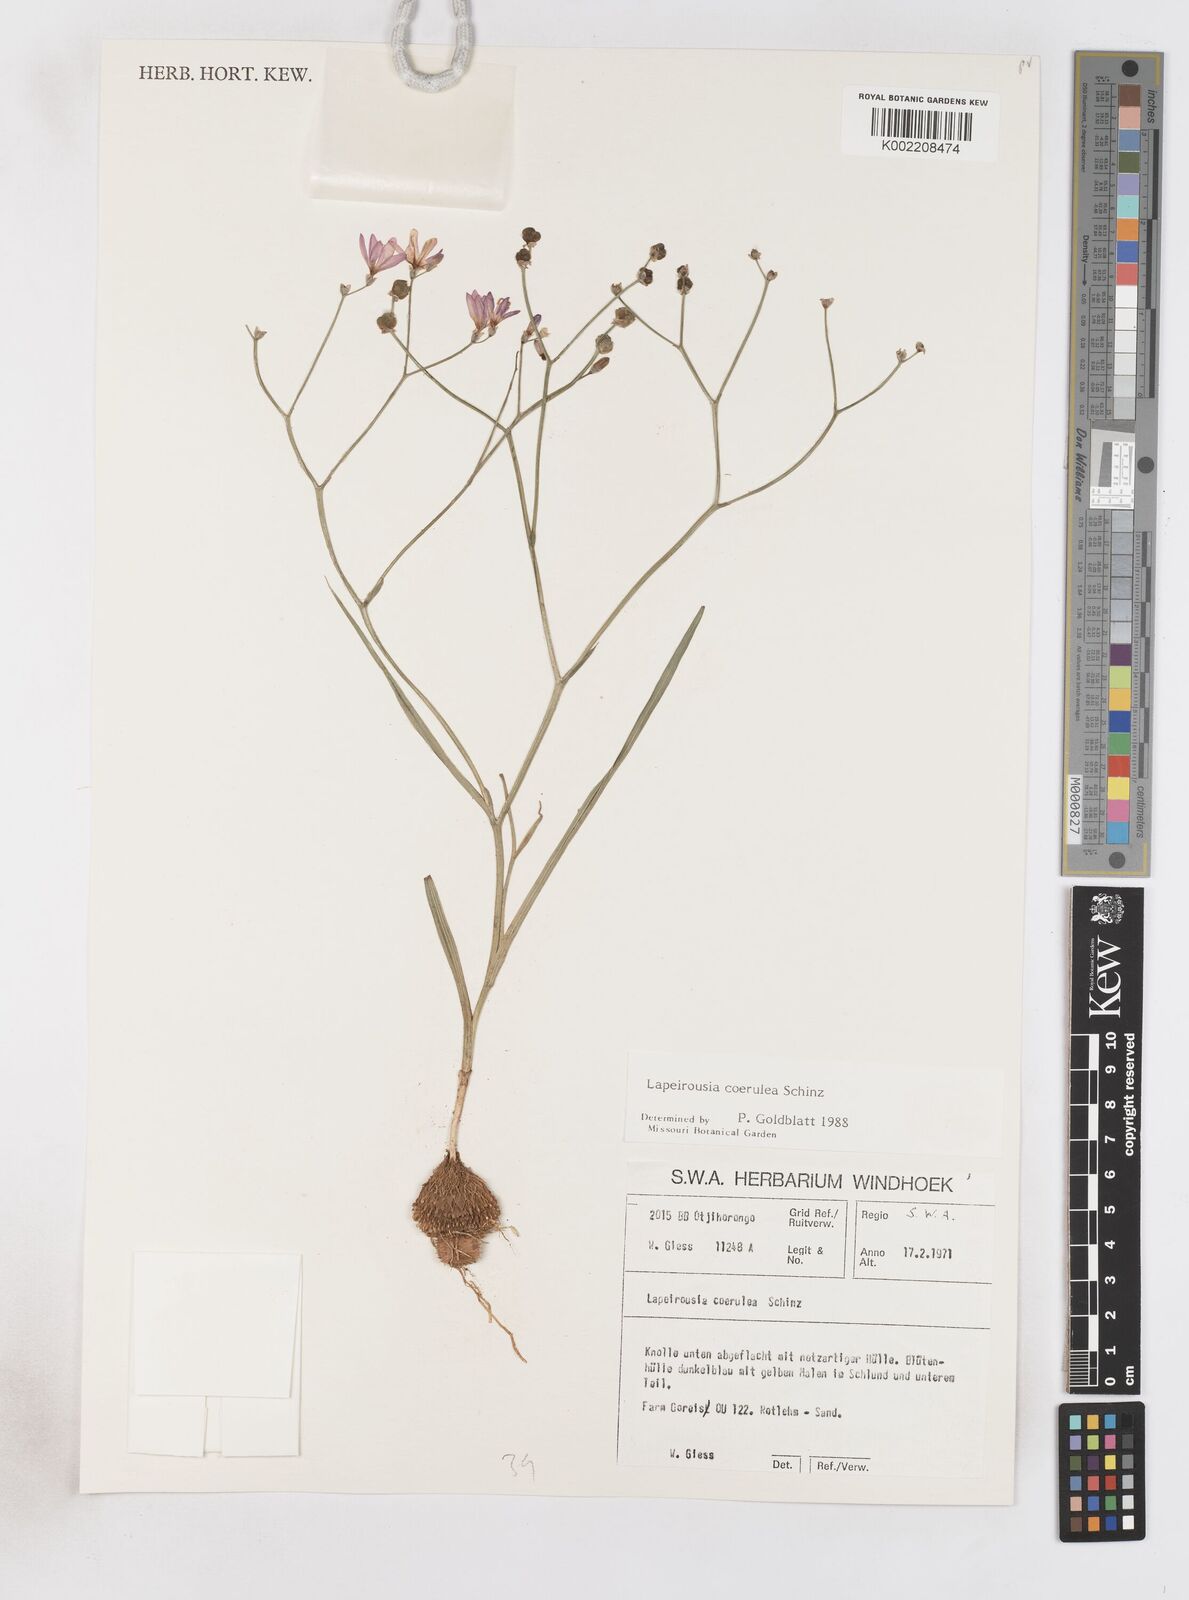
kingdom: Plantae
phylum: Tracheophyta
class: Liliopsida
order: Asparagales
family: Iridaceae
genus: Afrosolen
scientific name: Afrosolen coeruleus
